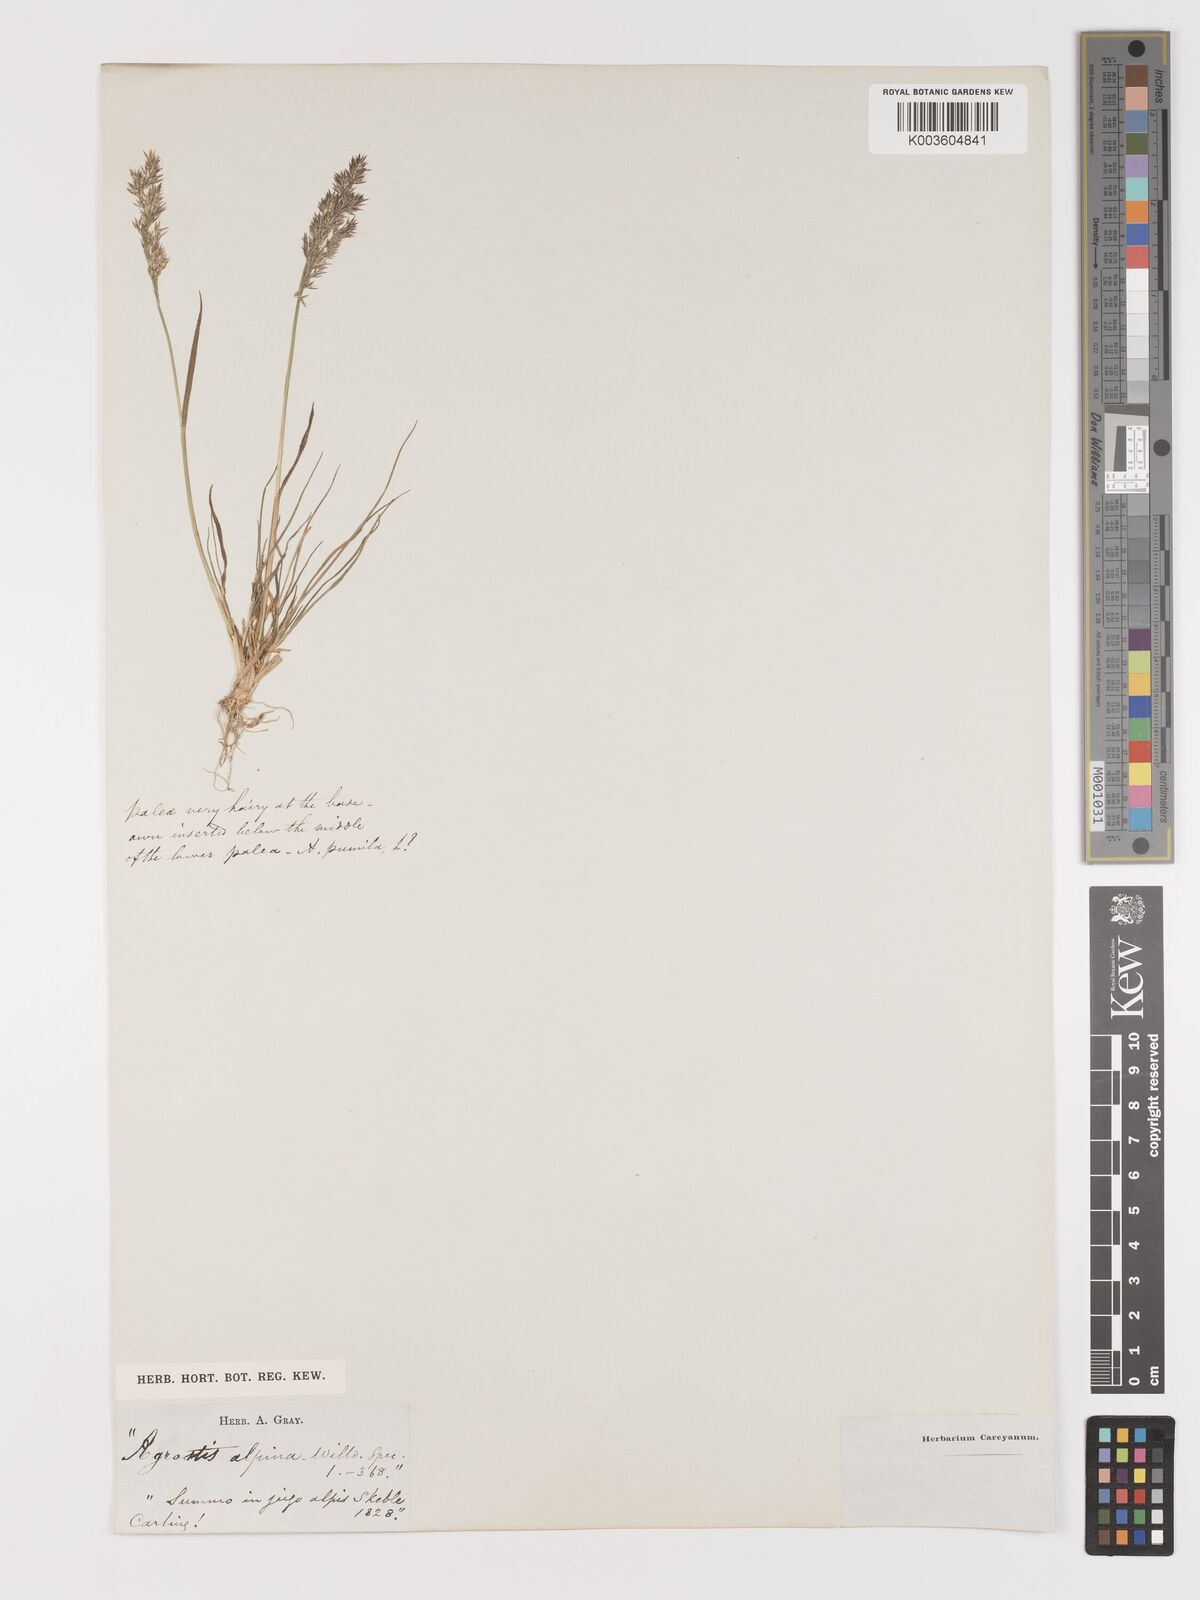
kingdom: Plantae
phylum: Tracheophyta
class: Liliopsida
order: Poales
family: Poaceae
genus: Agrostis
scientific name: Agrostis
